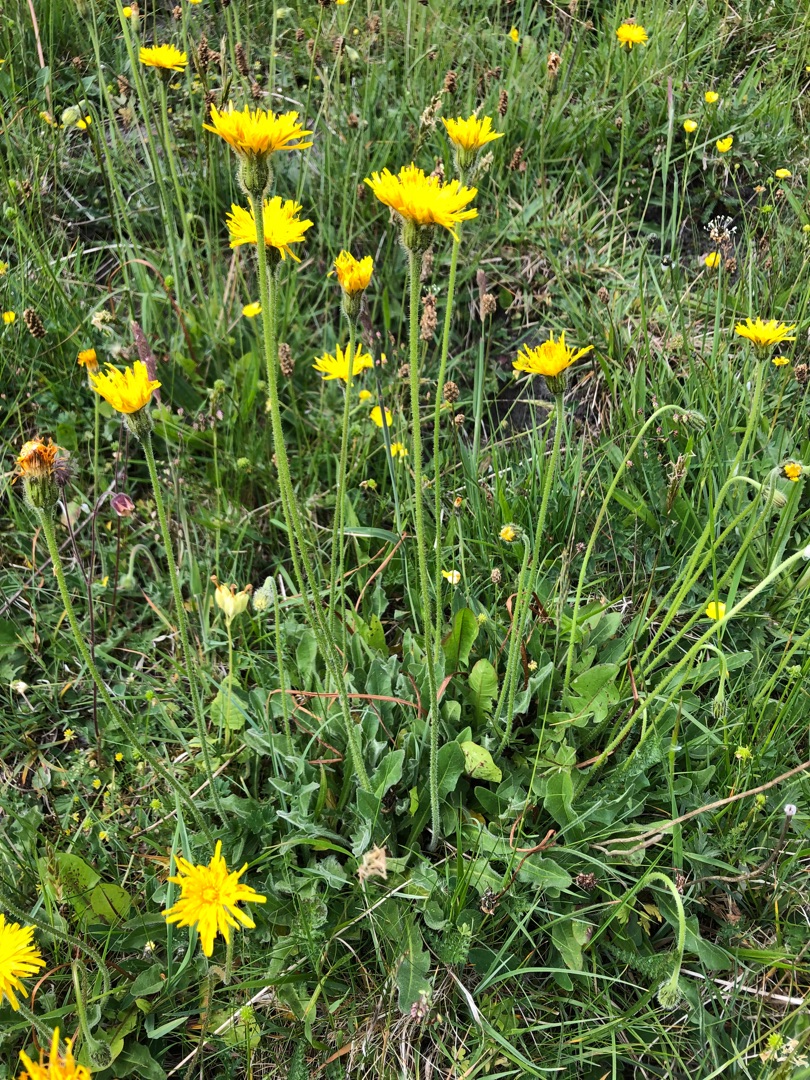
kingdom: Plantae
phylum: Tracheophyta
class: Magnoliopsida
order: Asterales
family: Asteraceae
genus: Leontodon
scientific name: Leontodon hispidus
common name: Stivhåret borst
